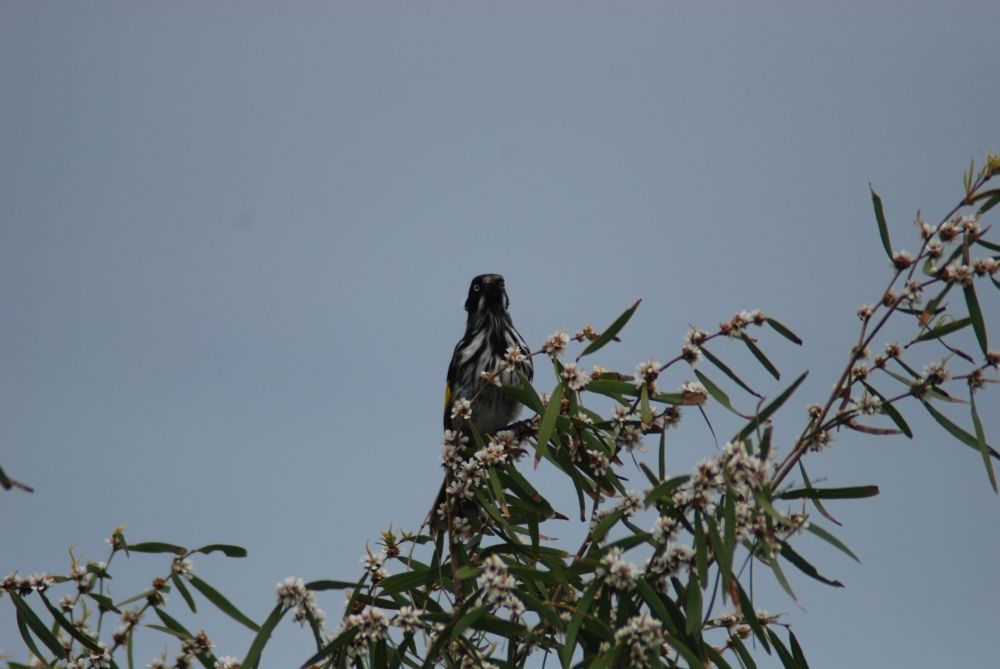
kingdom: Animalia
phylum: Chordata
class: Aves
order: Passeriformes
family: Meliphagidae
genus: Phylidonyris
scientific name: Phylidonyris novaehollandiae
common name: New holland honeyeater
